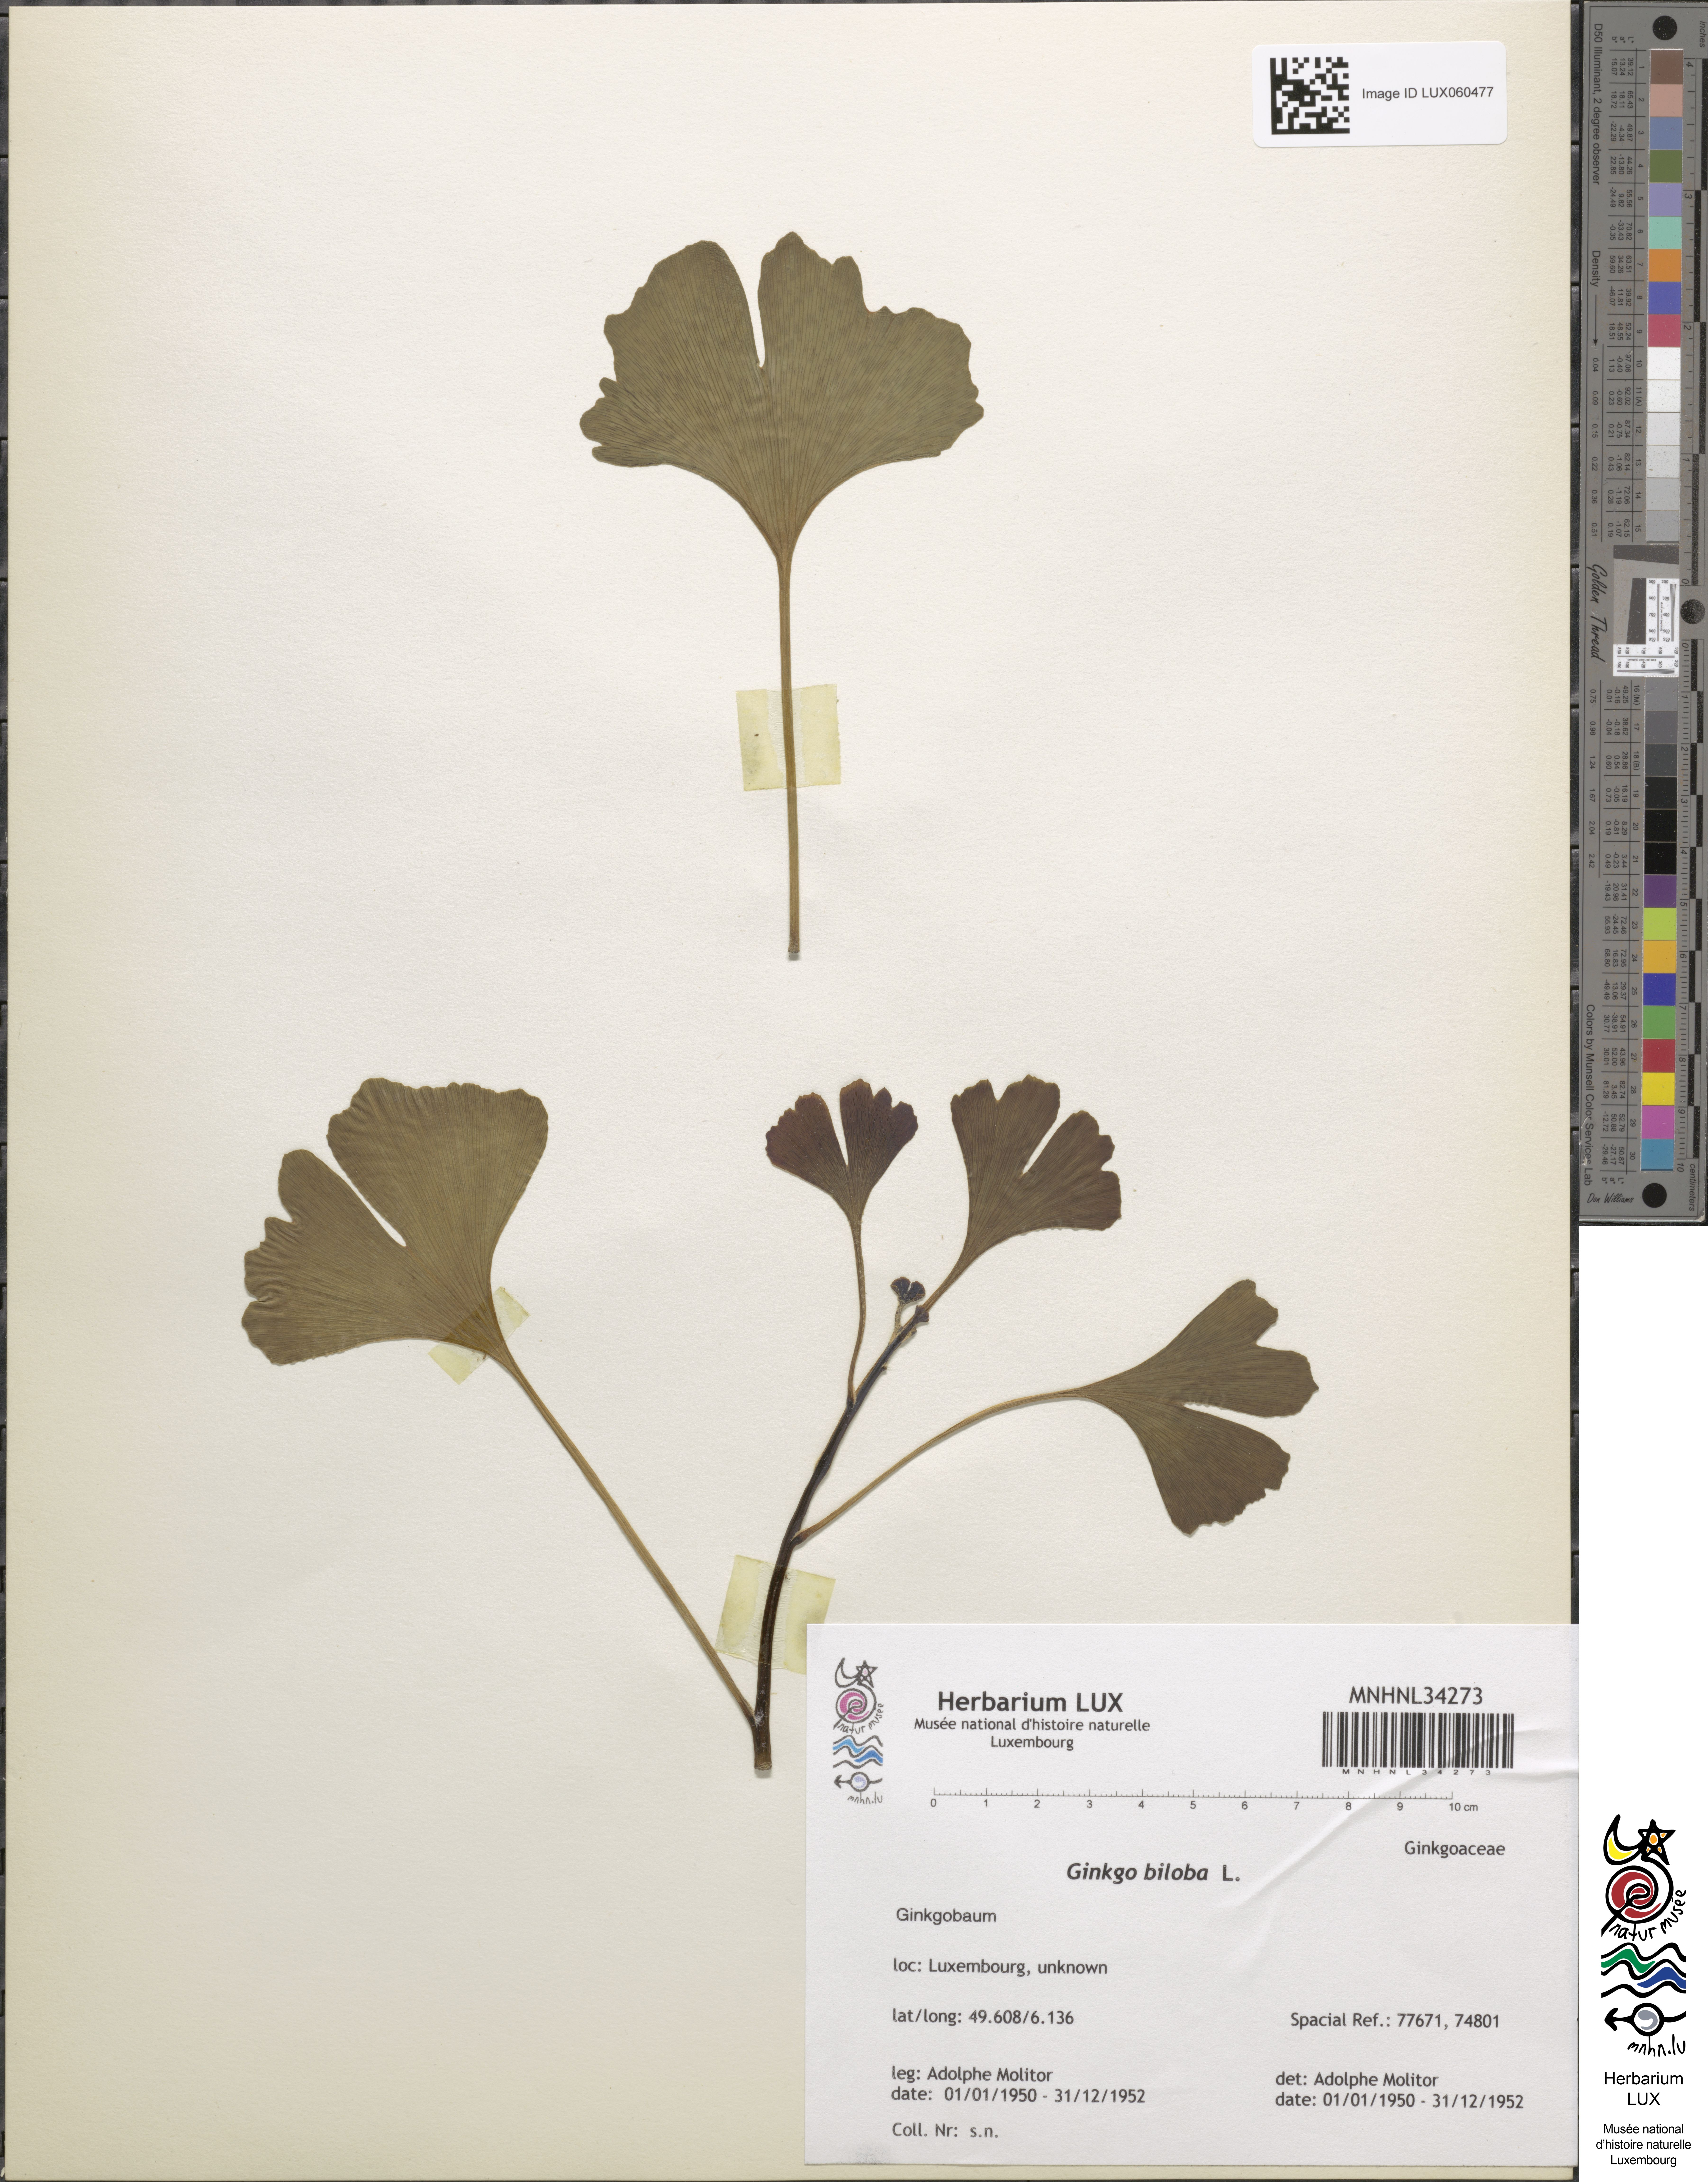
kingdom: Plantae
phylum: Tracheophyta
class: Ginkgoopsida
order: Ginkgoales
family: Ginkgoaceae
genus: Ginkgo
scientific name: Ginkgo biloba
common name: Ginkgo
